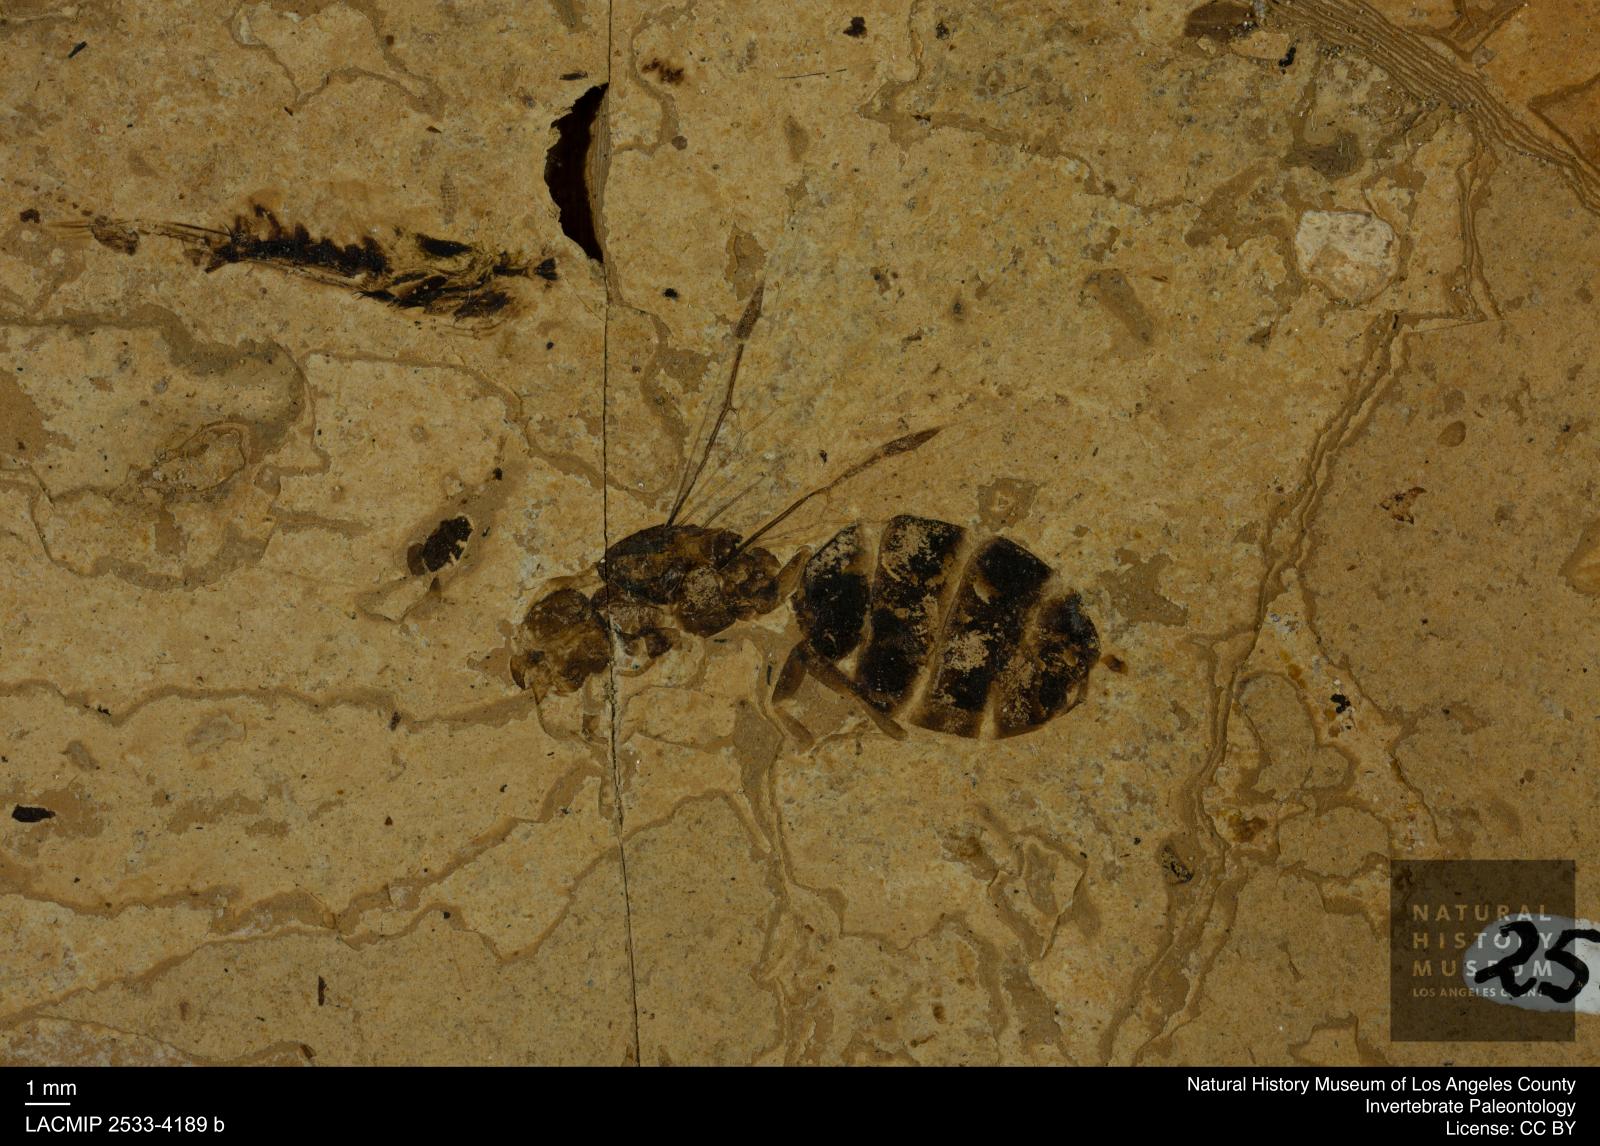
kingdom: Animalia
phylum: Arthropoda
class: Insecta
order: Hymenoptera
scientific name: Hymenoptera
